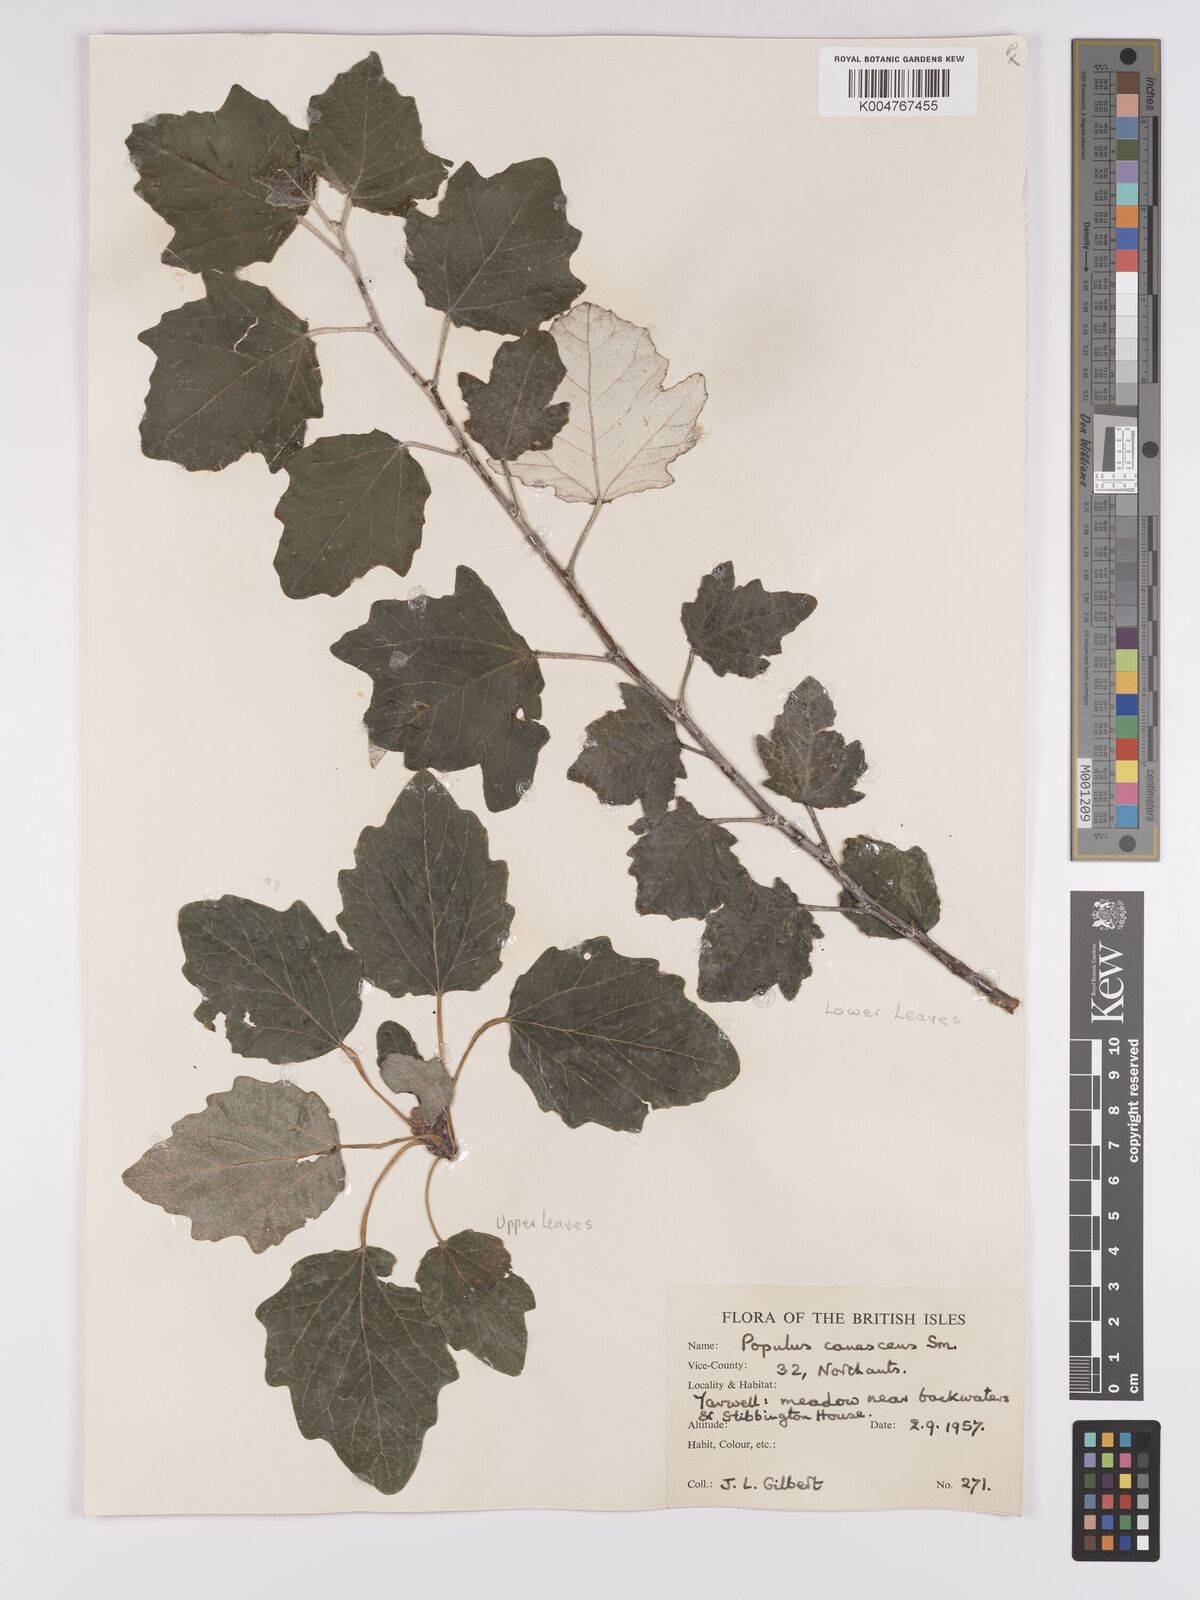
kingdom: Plantae
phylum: Tracheophyta
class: Magnoliopsida
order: Malpighiales
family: Salicaceae
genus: Populus
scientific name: Populus canescens
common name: Gray poplar
